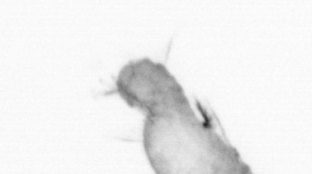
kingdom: Animalia
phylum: Annelida
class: Polychaeta
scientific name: Polychaeta
